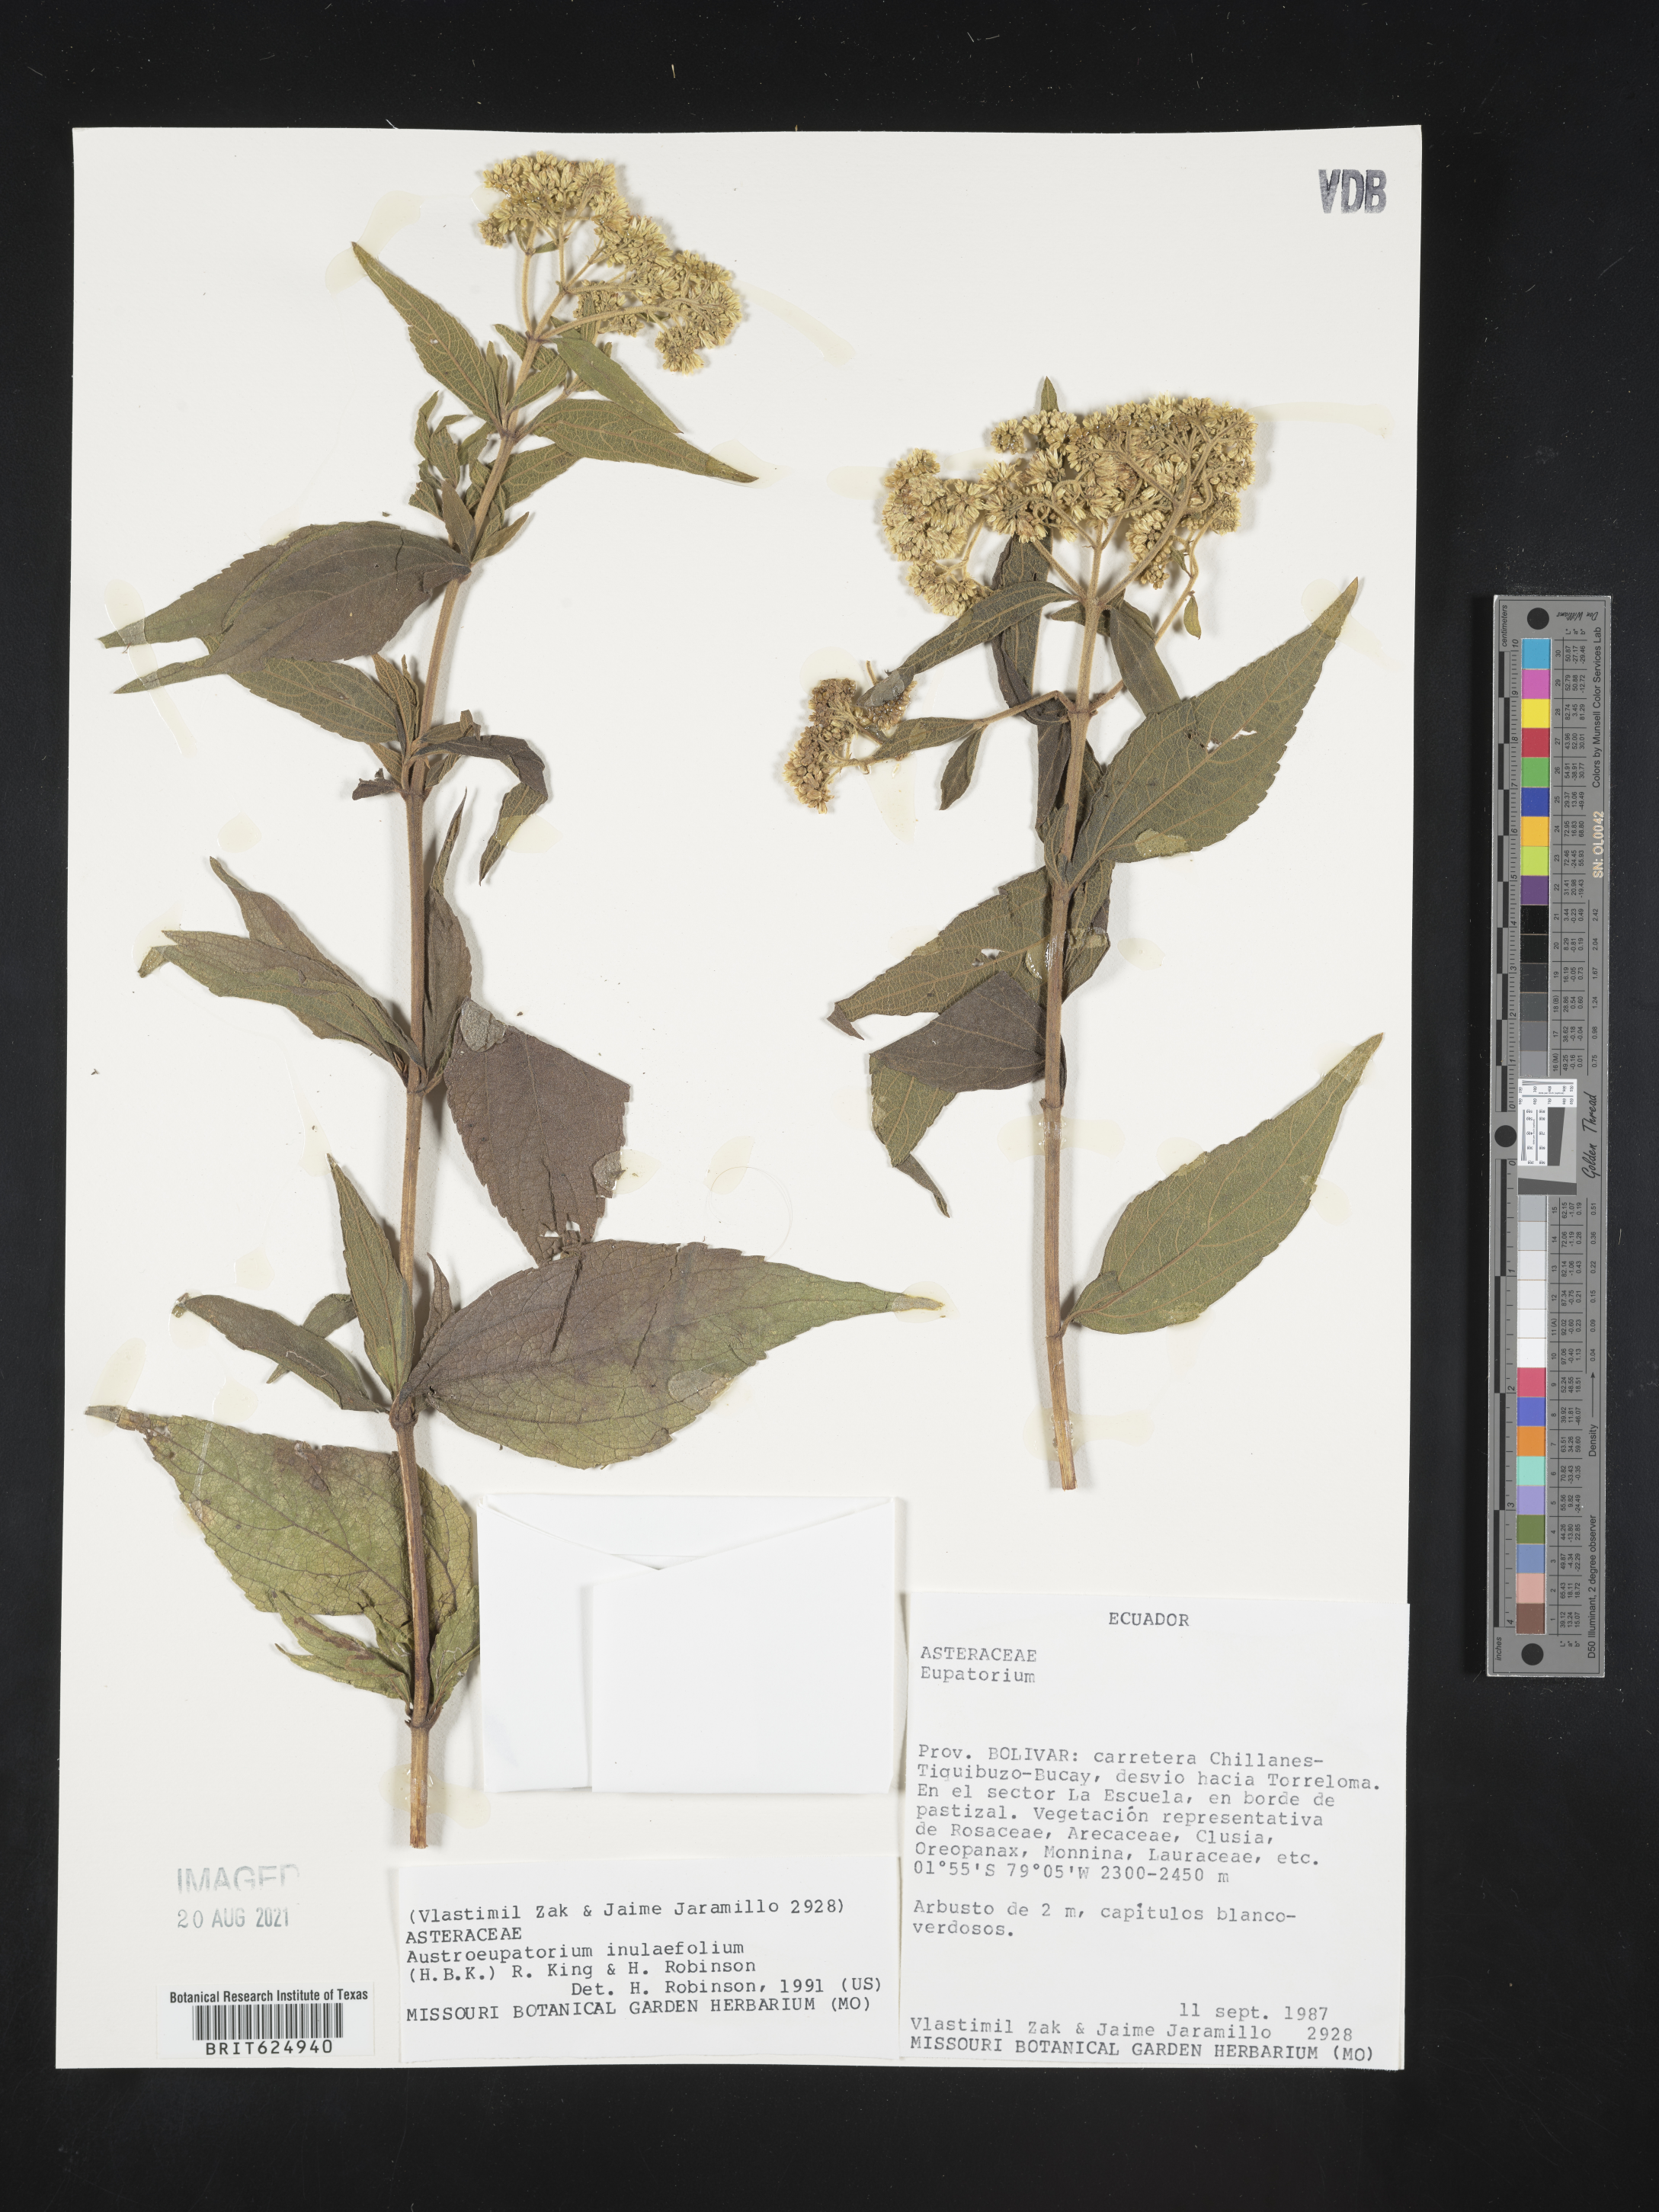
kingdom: Plantae
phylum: Tracheophyta
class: Magnoliopsida
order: Asterales
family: Asteraceae
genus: Austroeupatorium
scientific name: Austroeupatorium inulaefolium
